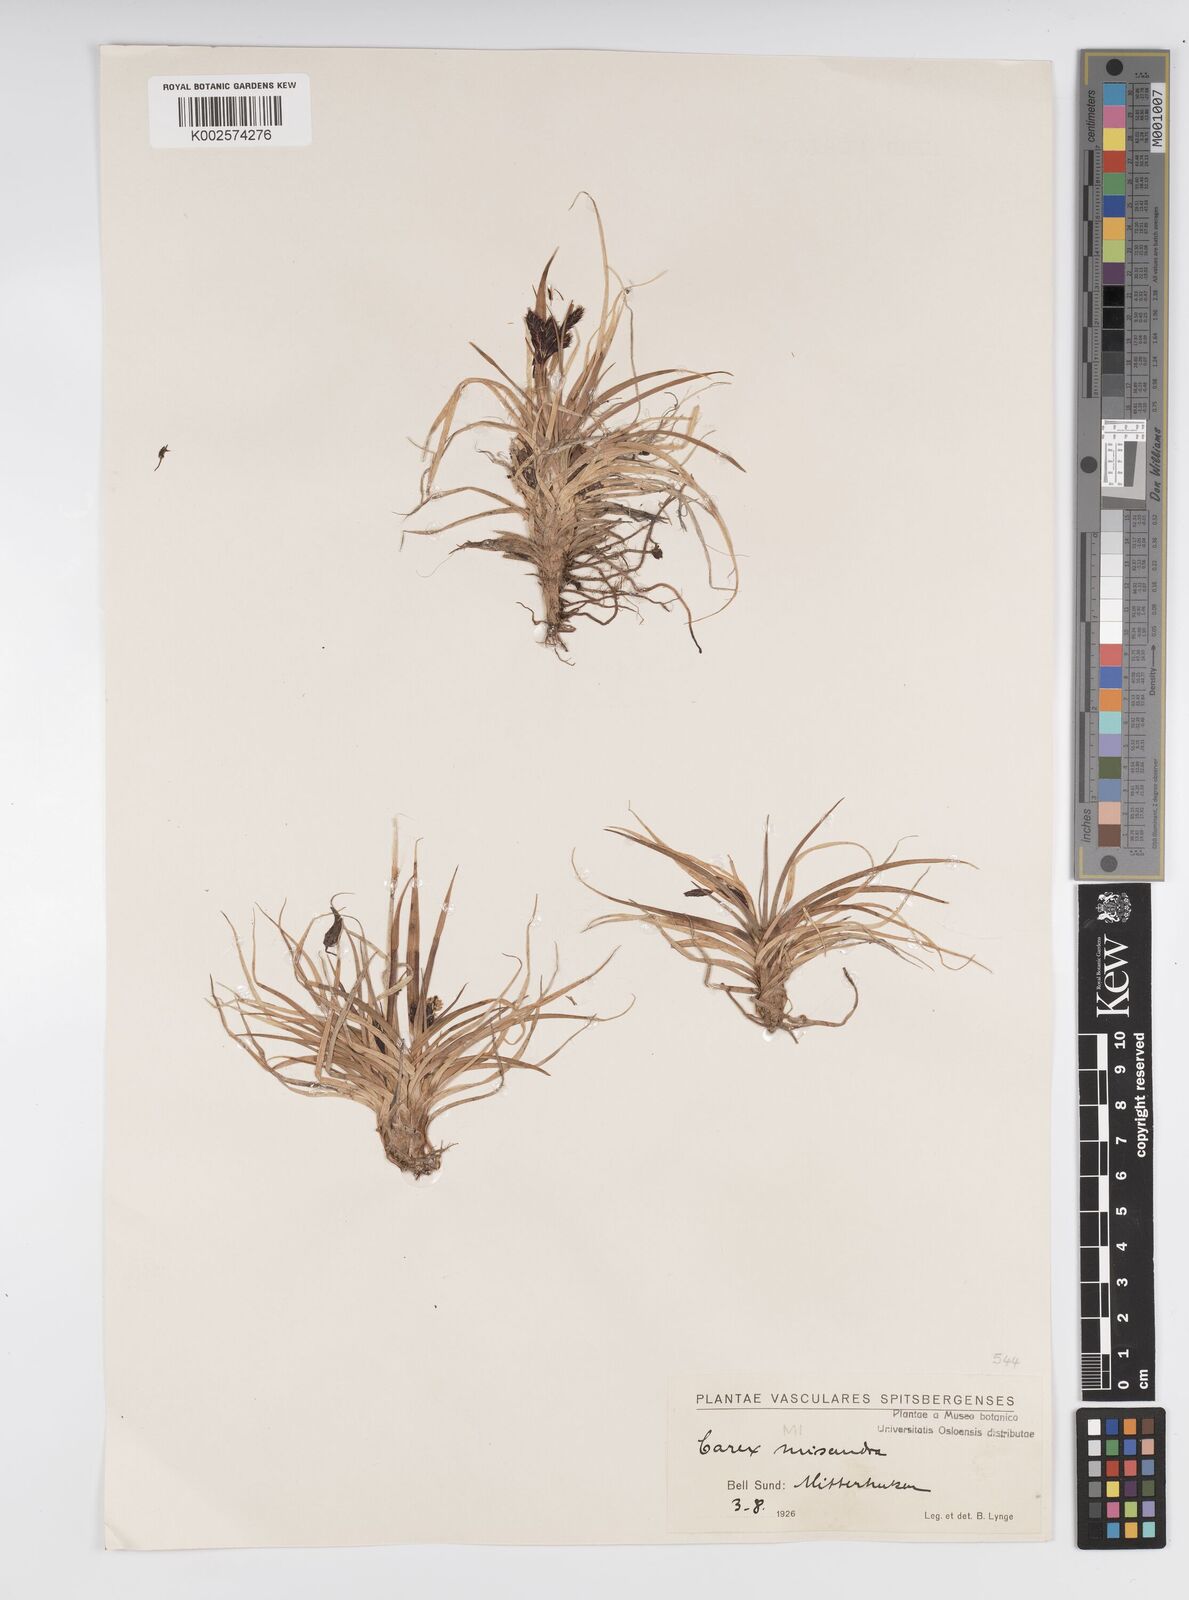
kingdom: Plantae
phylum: Tracheophyta
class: Liliopsida
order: Poales
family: Cyperaceae
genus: Carex
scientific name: Carex fuliginosa
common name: Few-flowered sedge
